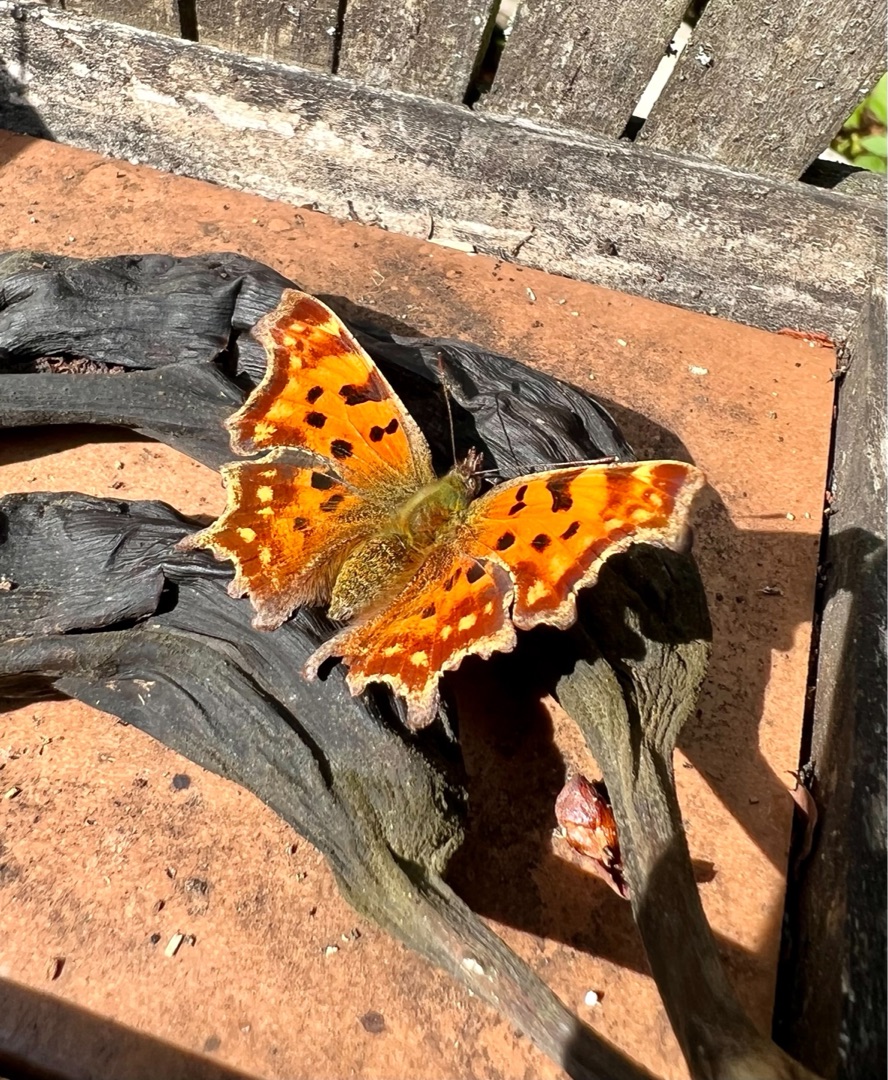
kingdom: Animalia
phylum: Arthropoda
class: Insecta
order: Lepidoptera
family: Nymphalidae
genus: Polygonia
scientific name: Polygonia c-album
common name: Det hvide C
